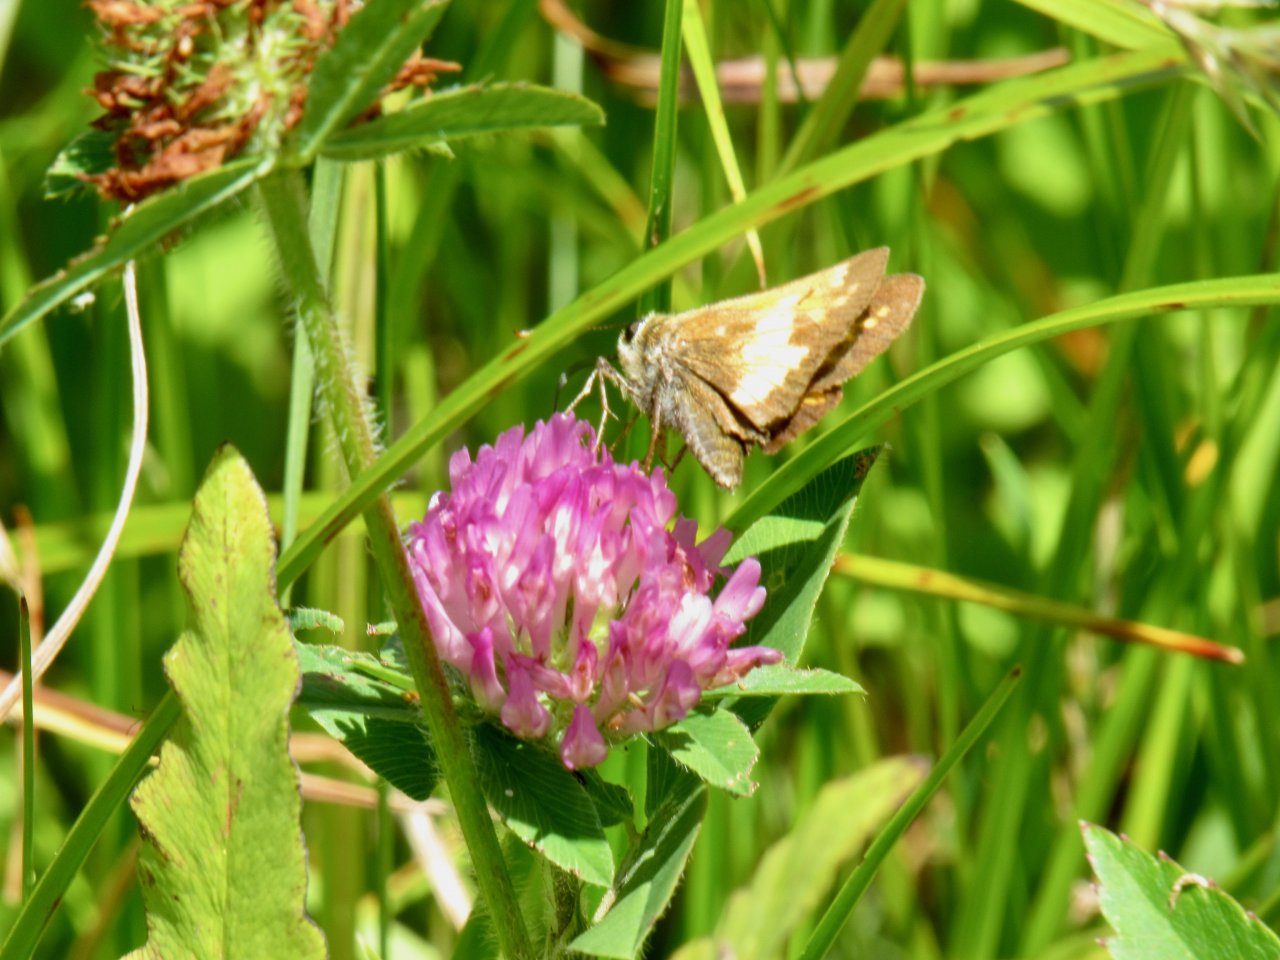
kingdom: Animalia
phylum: Arthropoda
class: Insecta
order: Lepidoptera
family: Hesperiidae
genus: Lon
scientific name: Lon hobomok
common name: Hobomok Skipper
